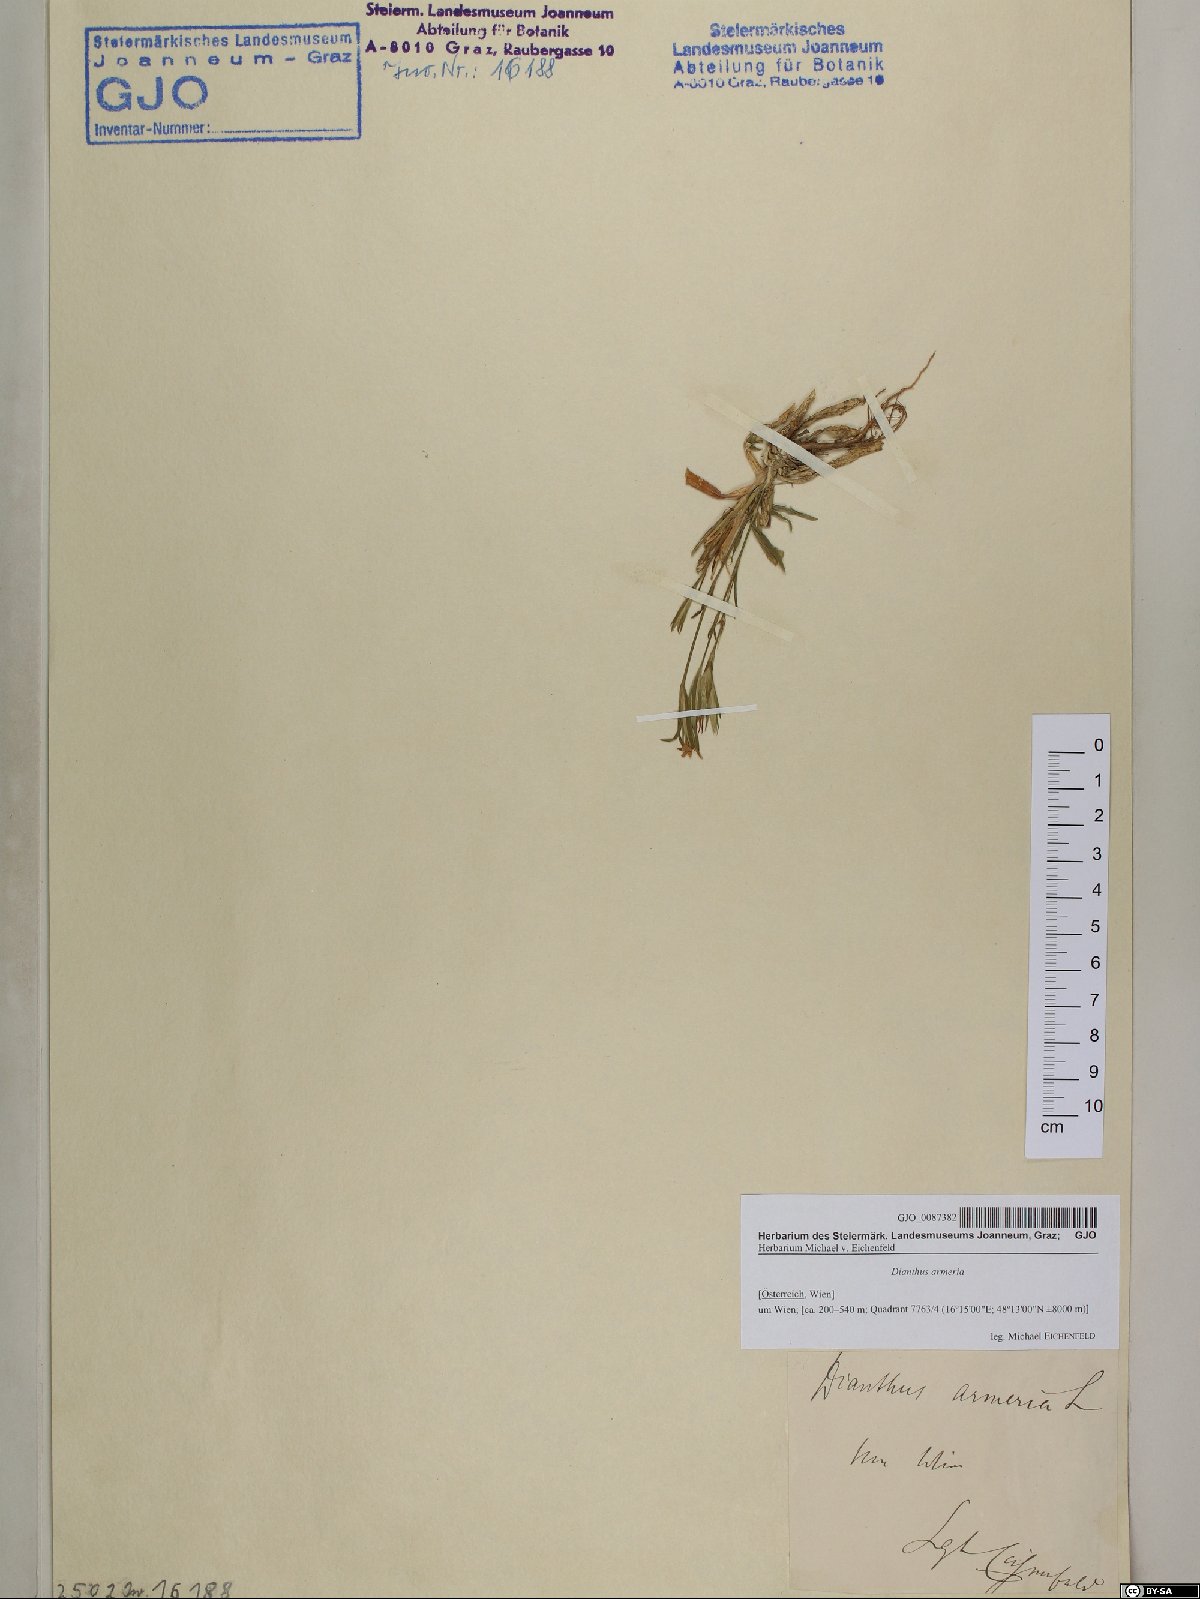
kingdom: Plantae
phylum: Tracheophyta
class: Magnoliopsida
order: Caryophyllales
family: Caryophyllaceae
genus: Dianthus
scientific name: Dianthus armeria
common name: Deptford pink
